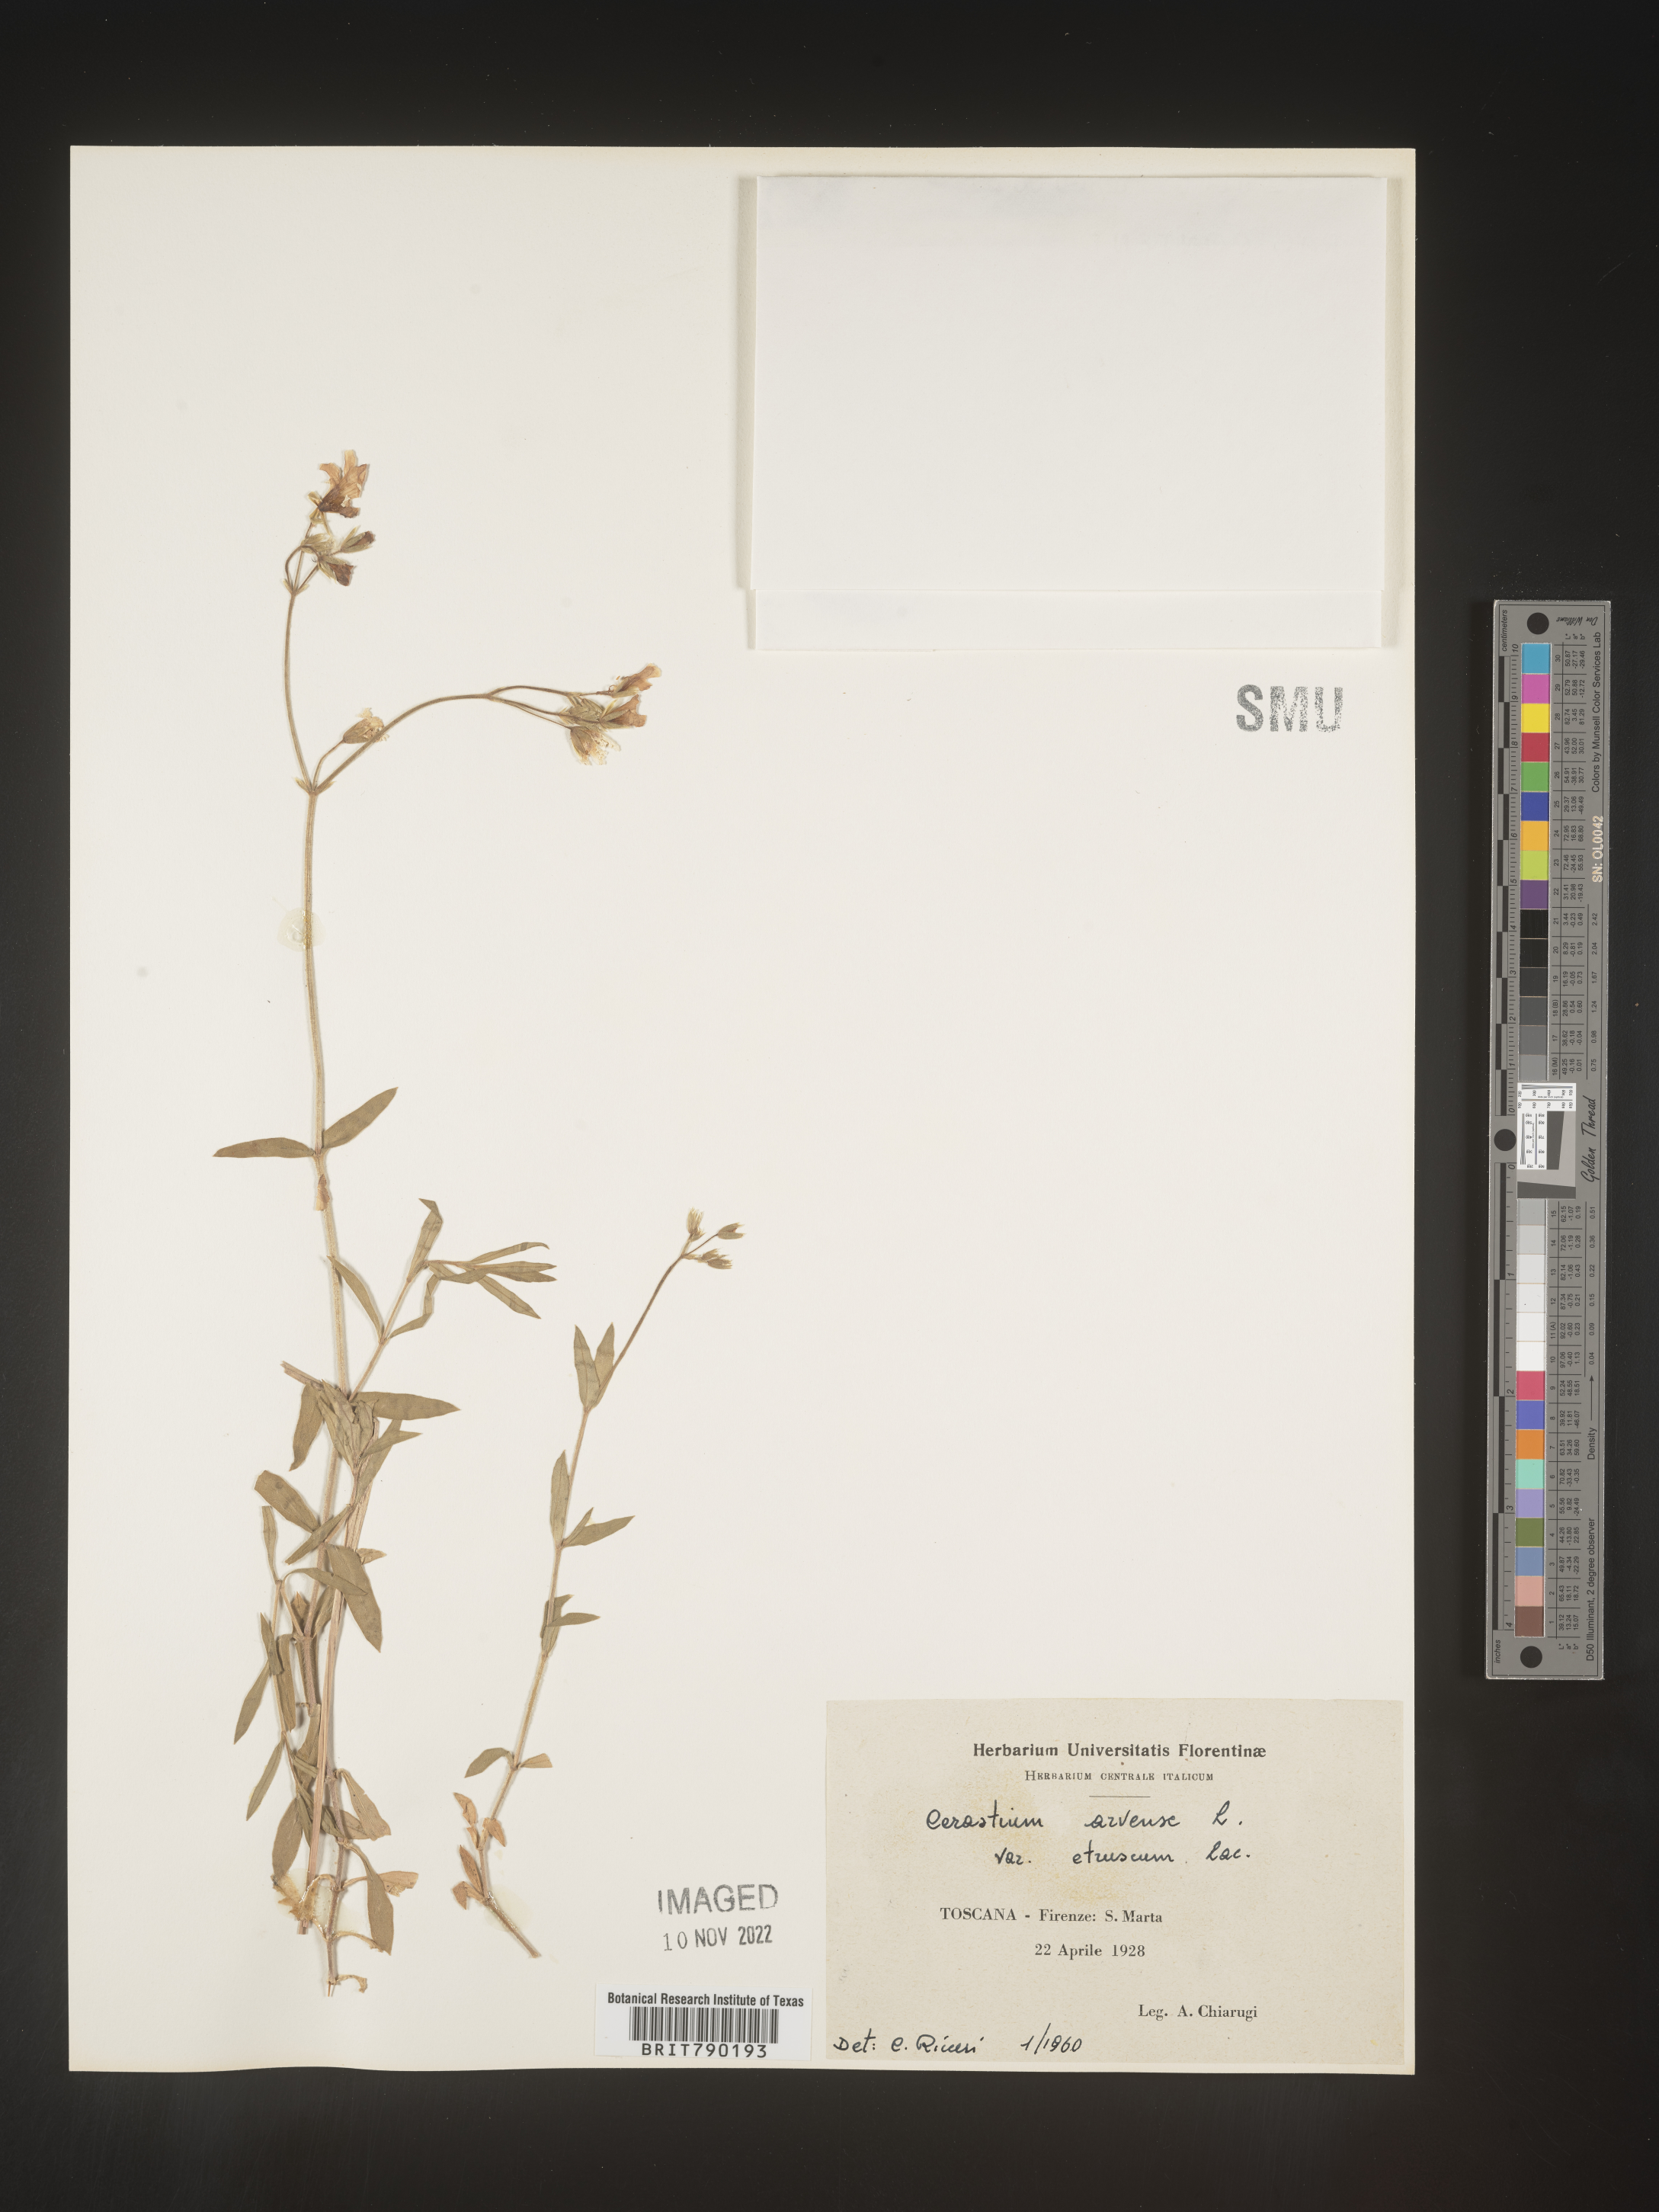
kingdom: Plantae
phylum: Tracheophyta
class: Magnoliopsida
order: Caryophyllales
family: Caryophyllaceae
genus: Cerastium
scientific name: Cerastium
